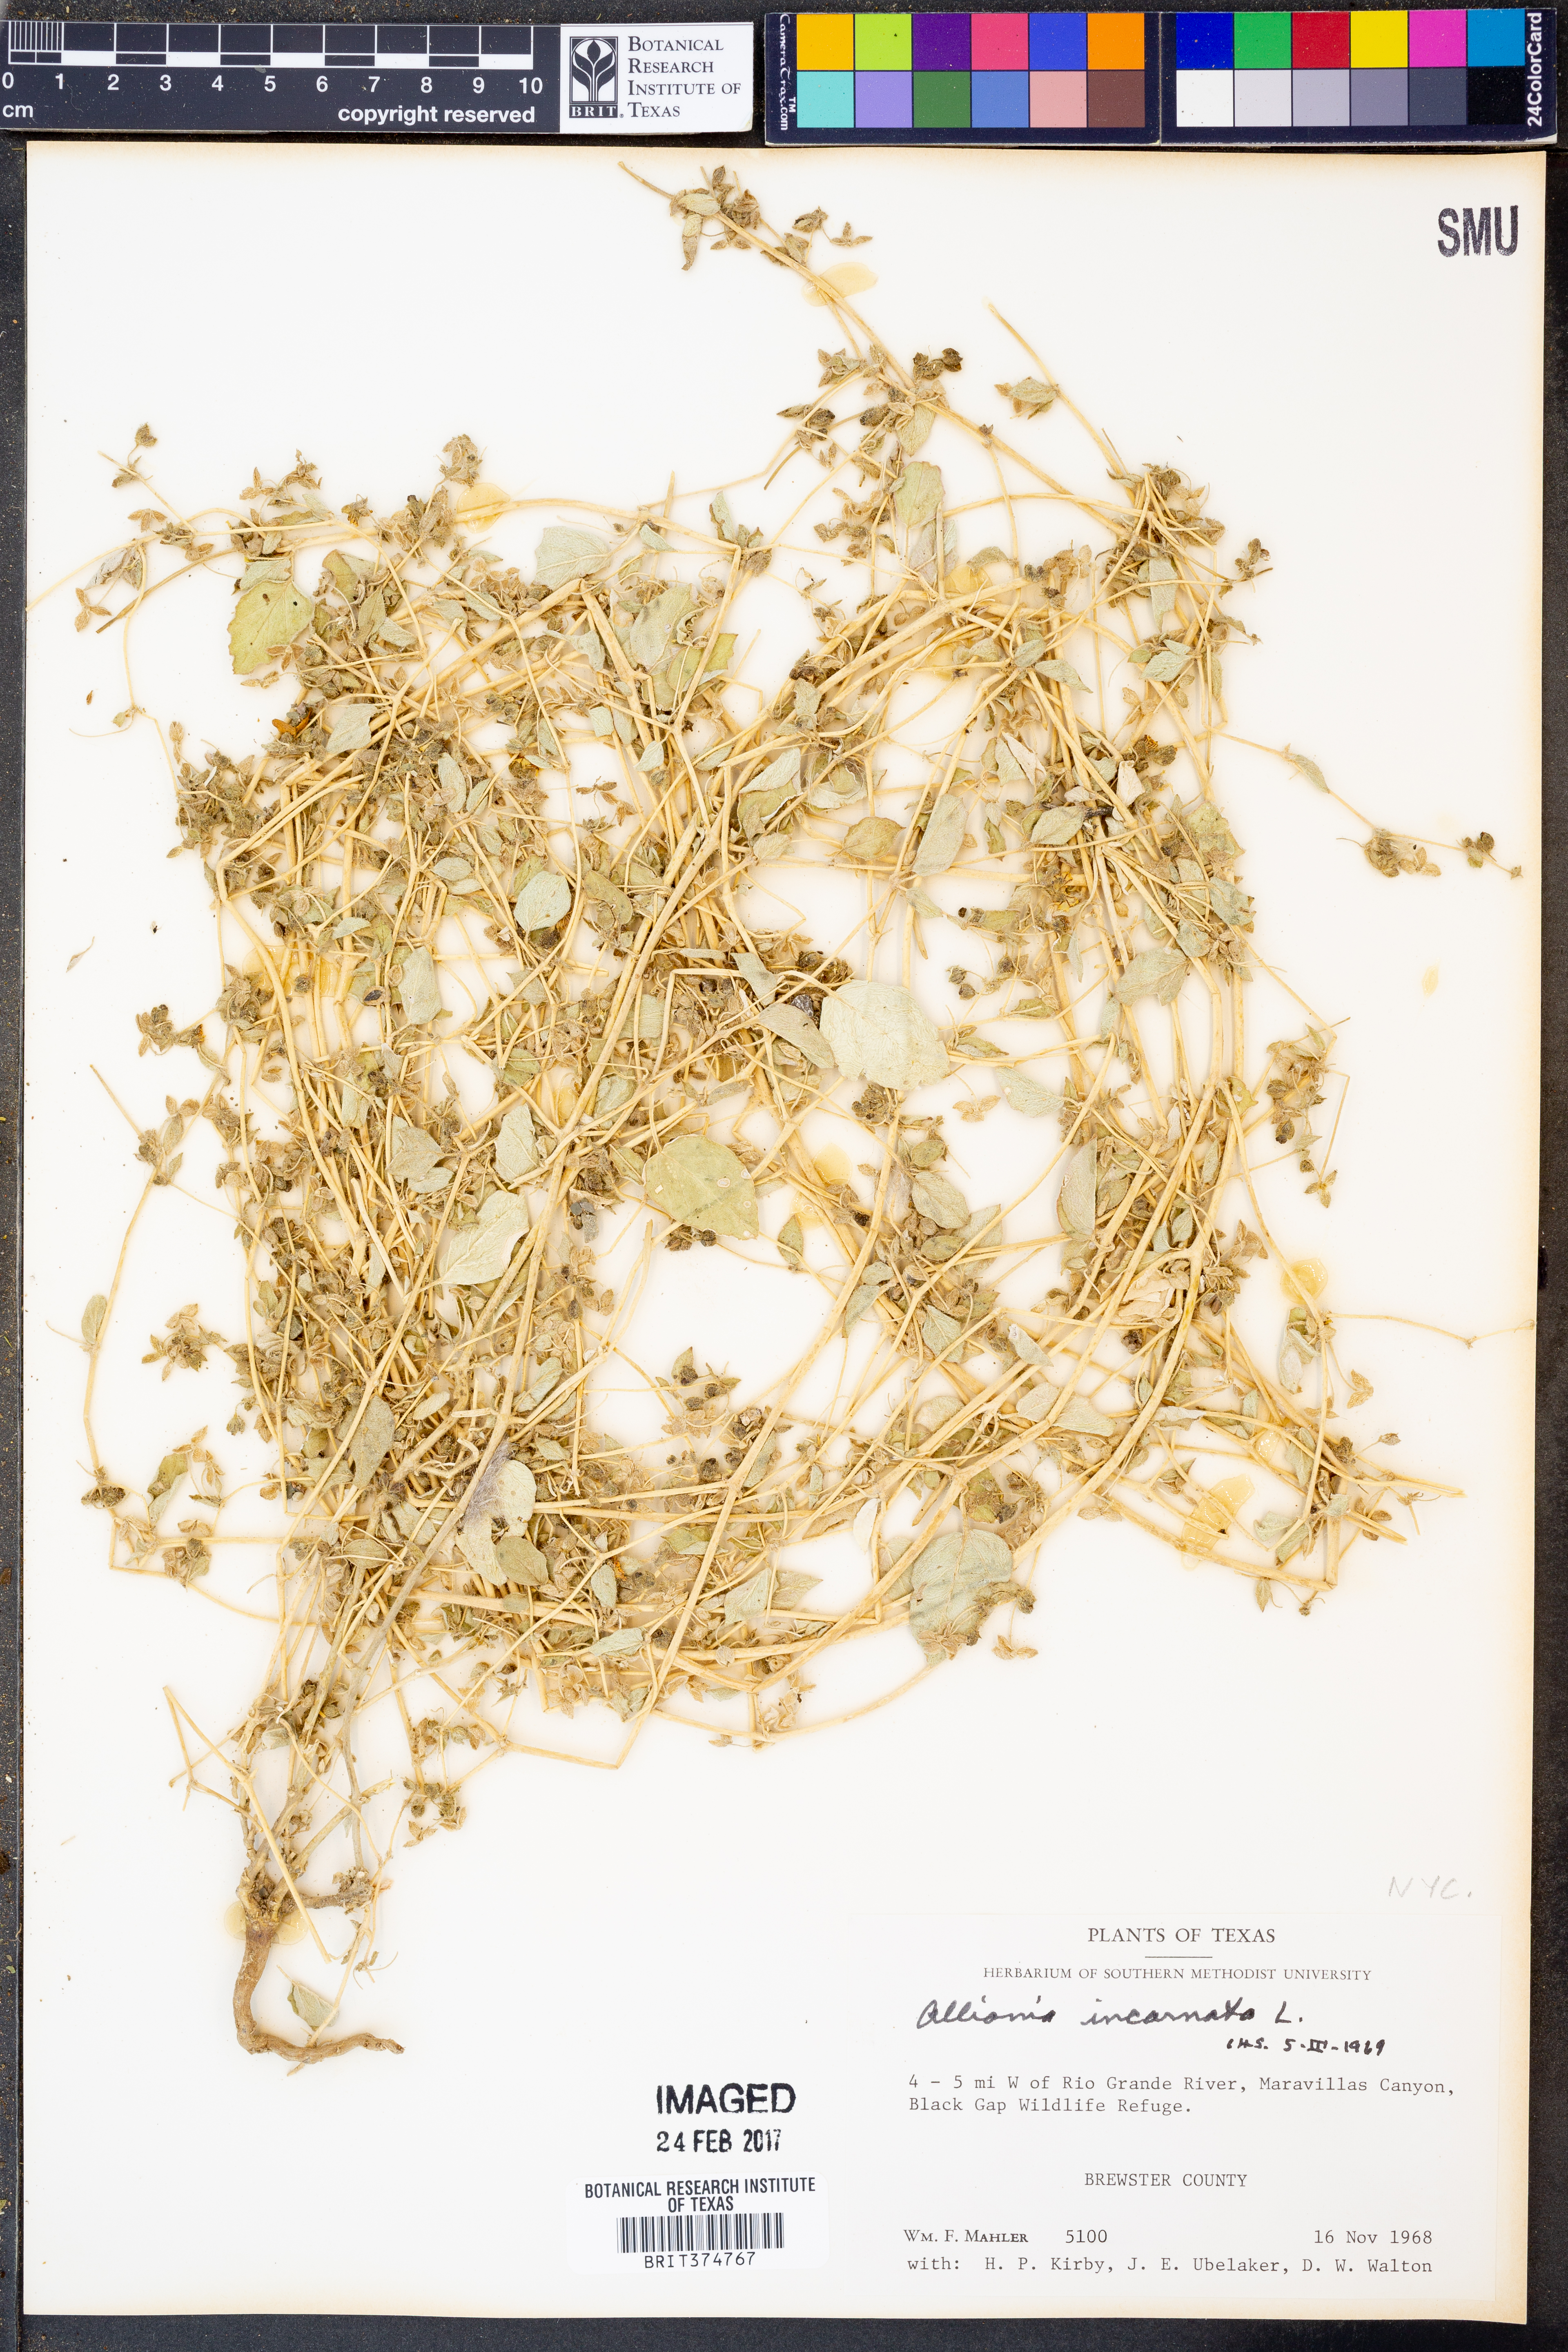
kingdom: Plantae
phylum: Tracheophyta
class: Magnoliopsida
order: Caryophyllales
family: Nyctaginaceae
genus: Allionia
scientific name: Allionia incarnata
